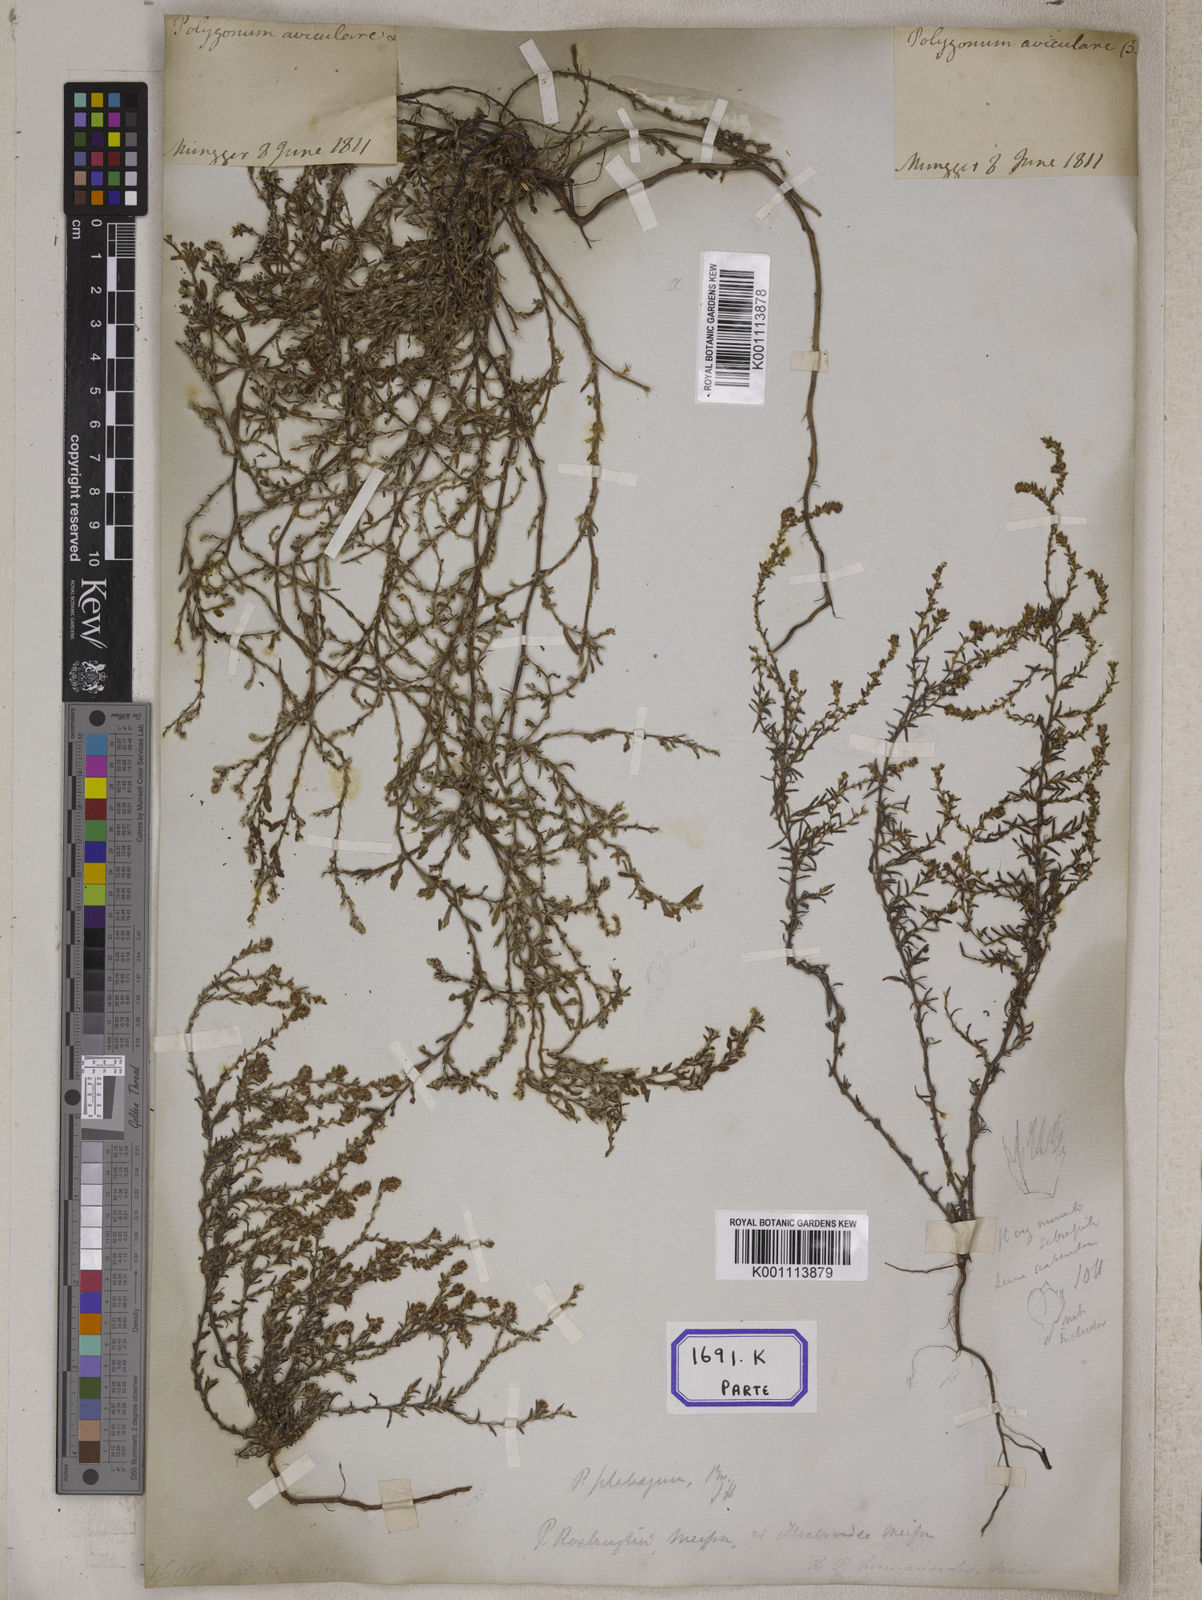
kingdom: Plantae
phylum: Tracheophyta
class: Magnoliopsida
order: Caryophyllales
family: Polygonaceae
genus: Polygonum
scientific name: Polygonum plebeium
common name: Common knotweed
